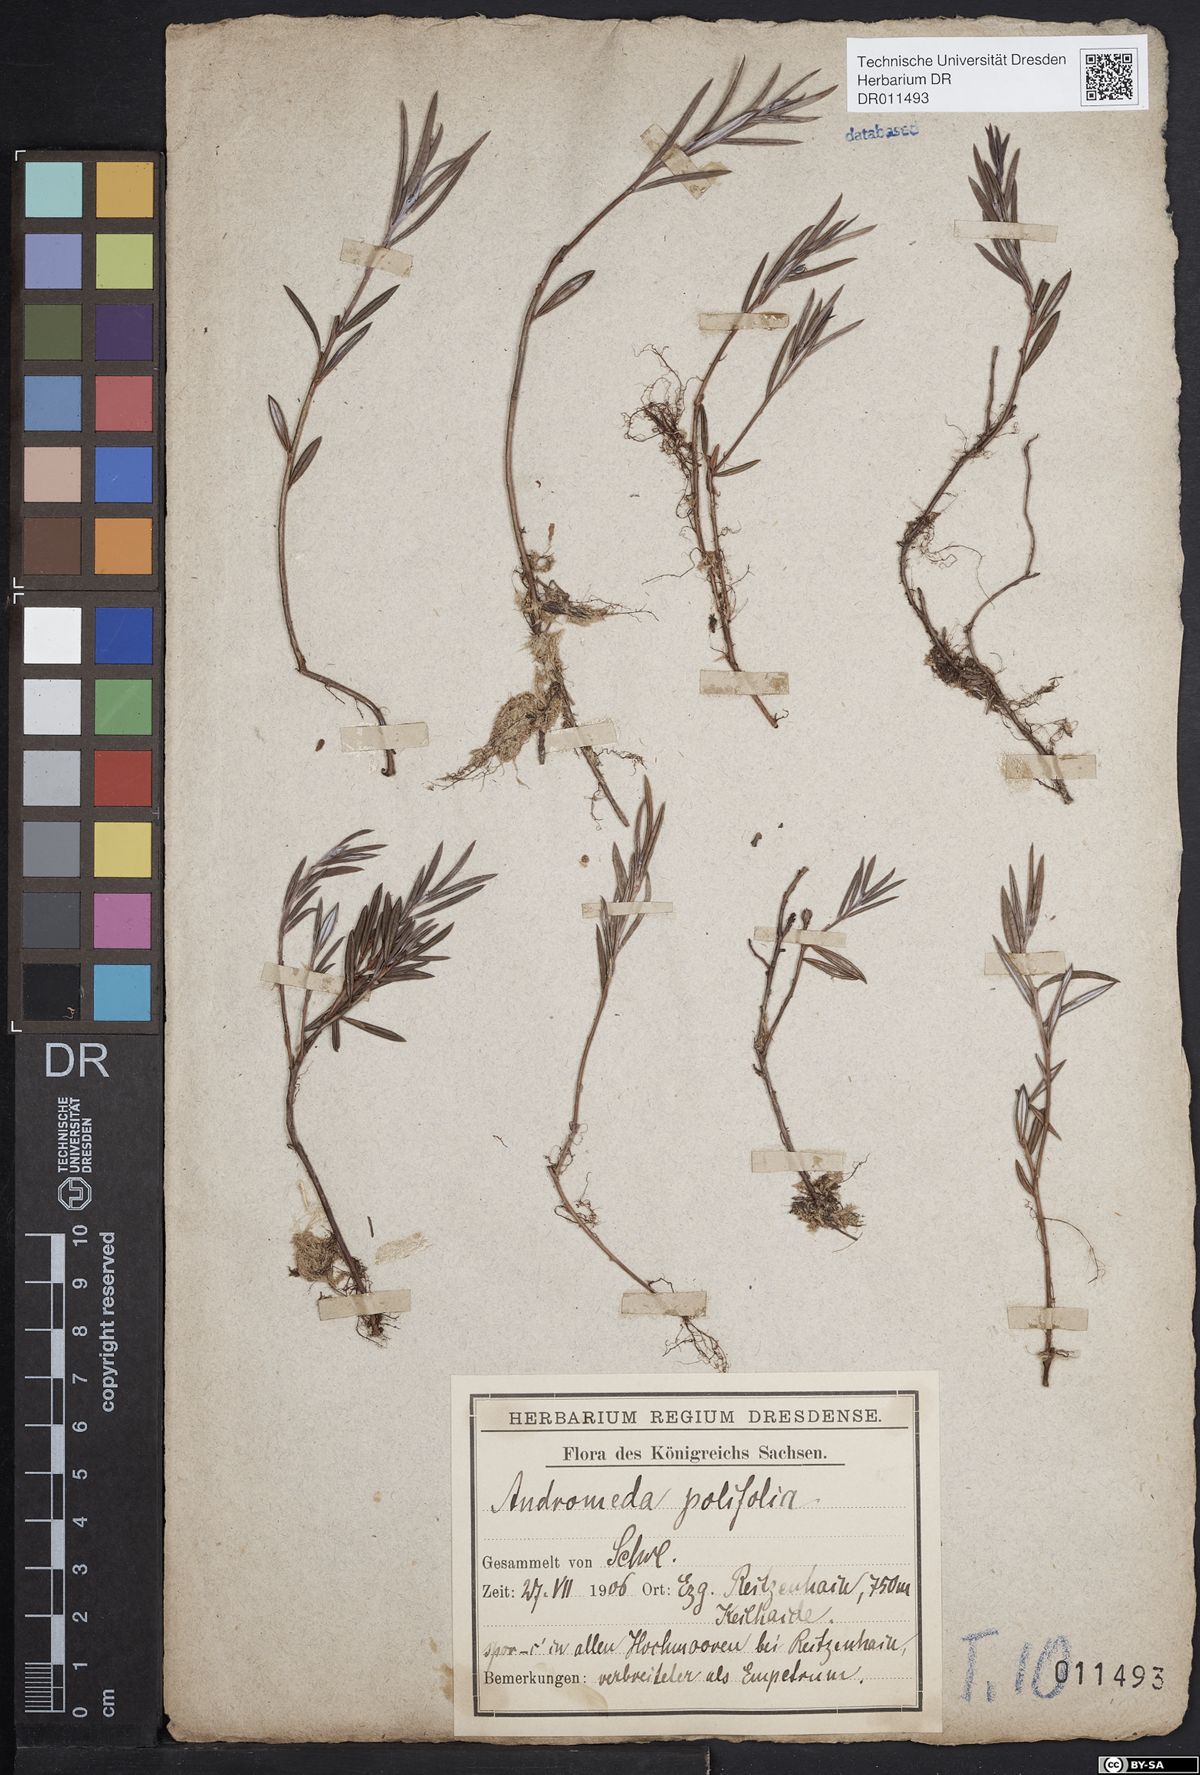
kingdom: Plantae
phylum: Tracheophyta
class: Magnoliopsida
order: Ericales
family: Ericaceae
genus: Andromeda
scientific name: Andromeda polifolia
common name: Bog-rosemary
